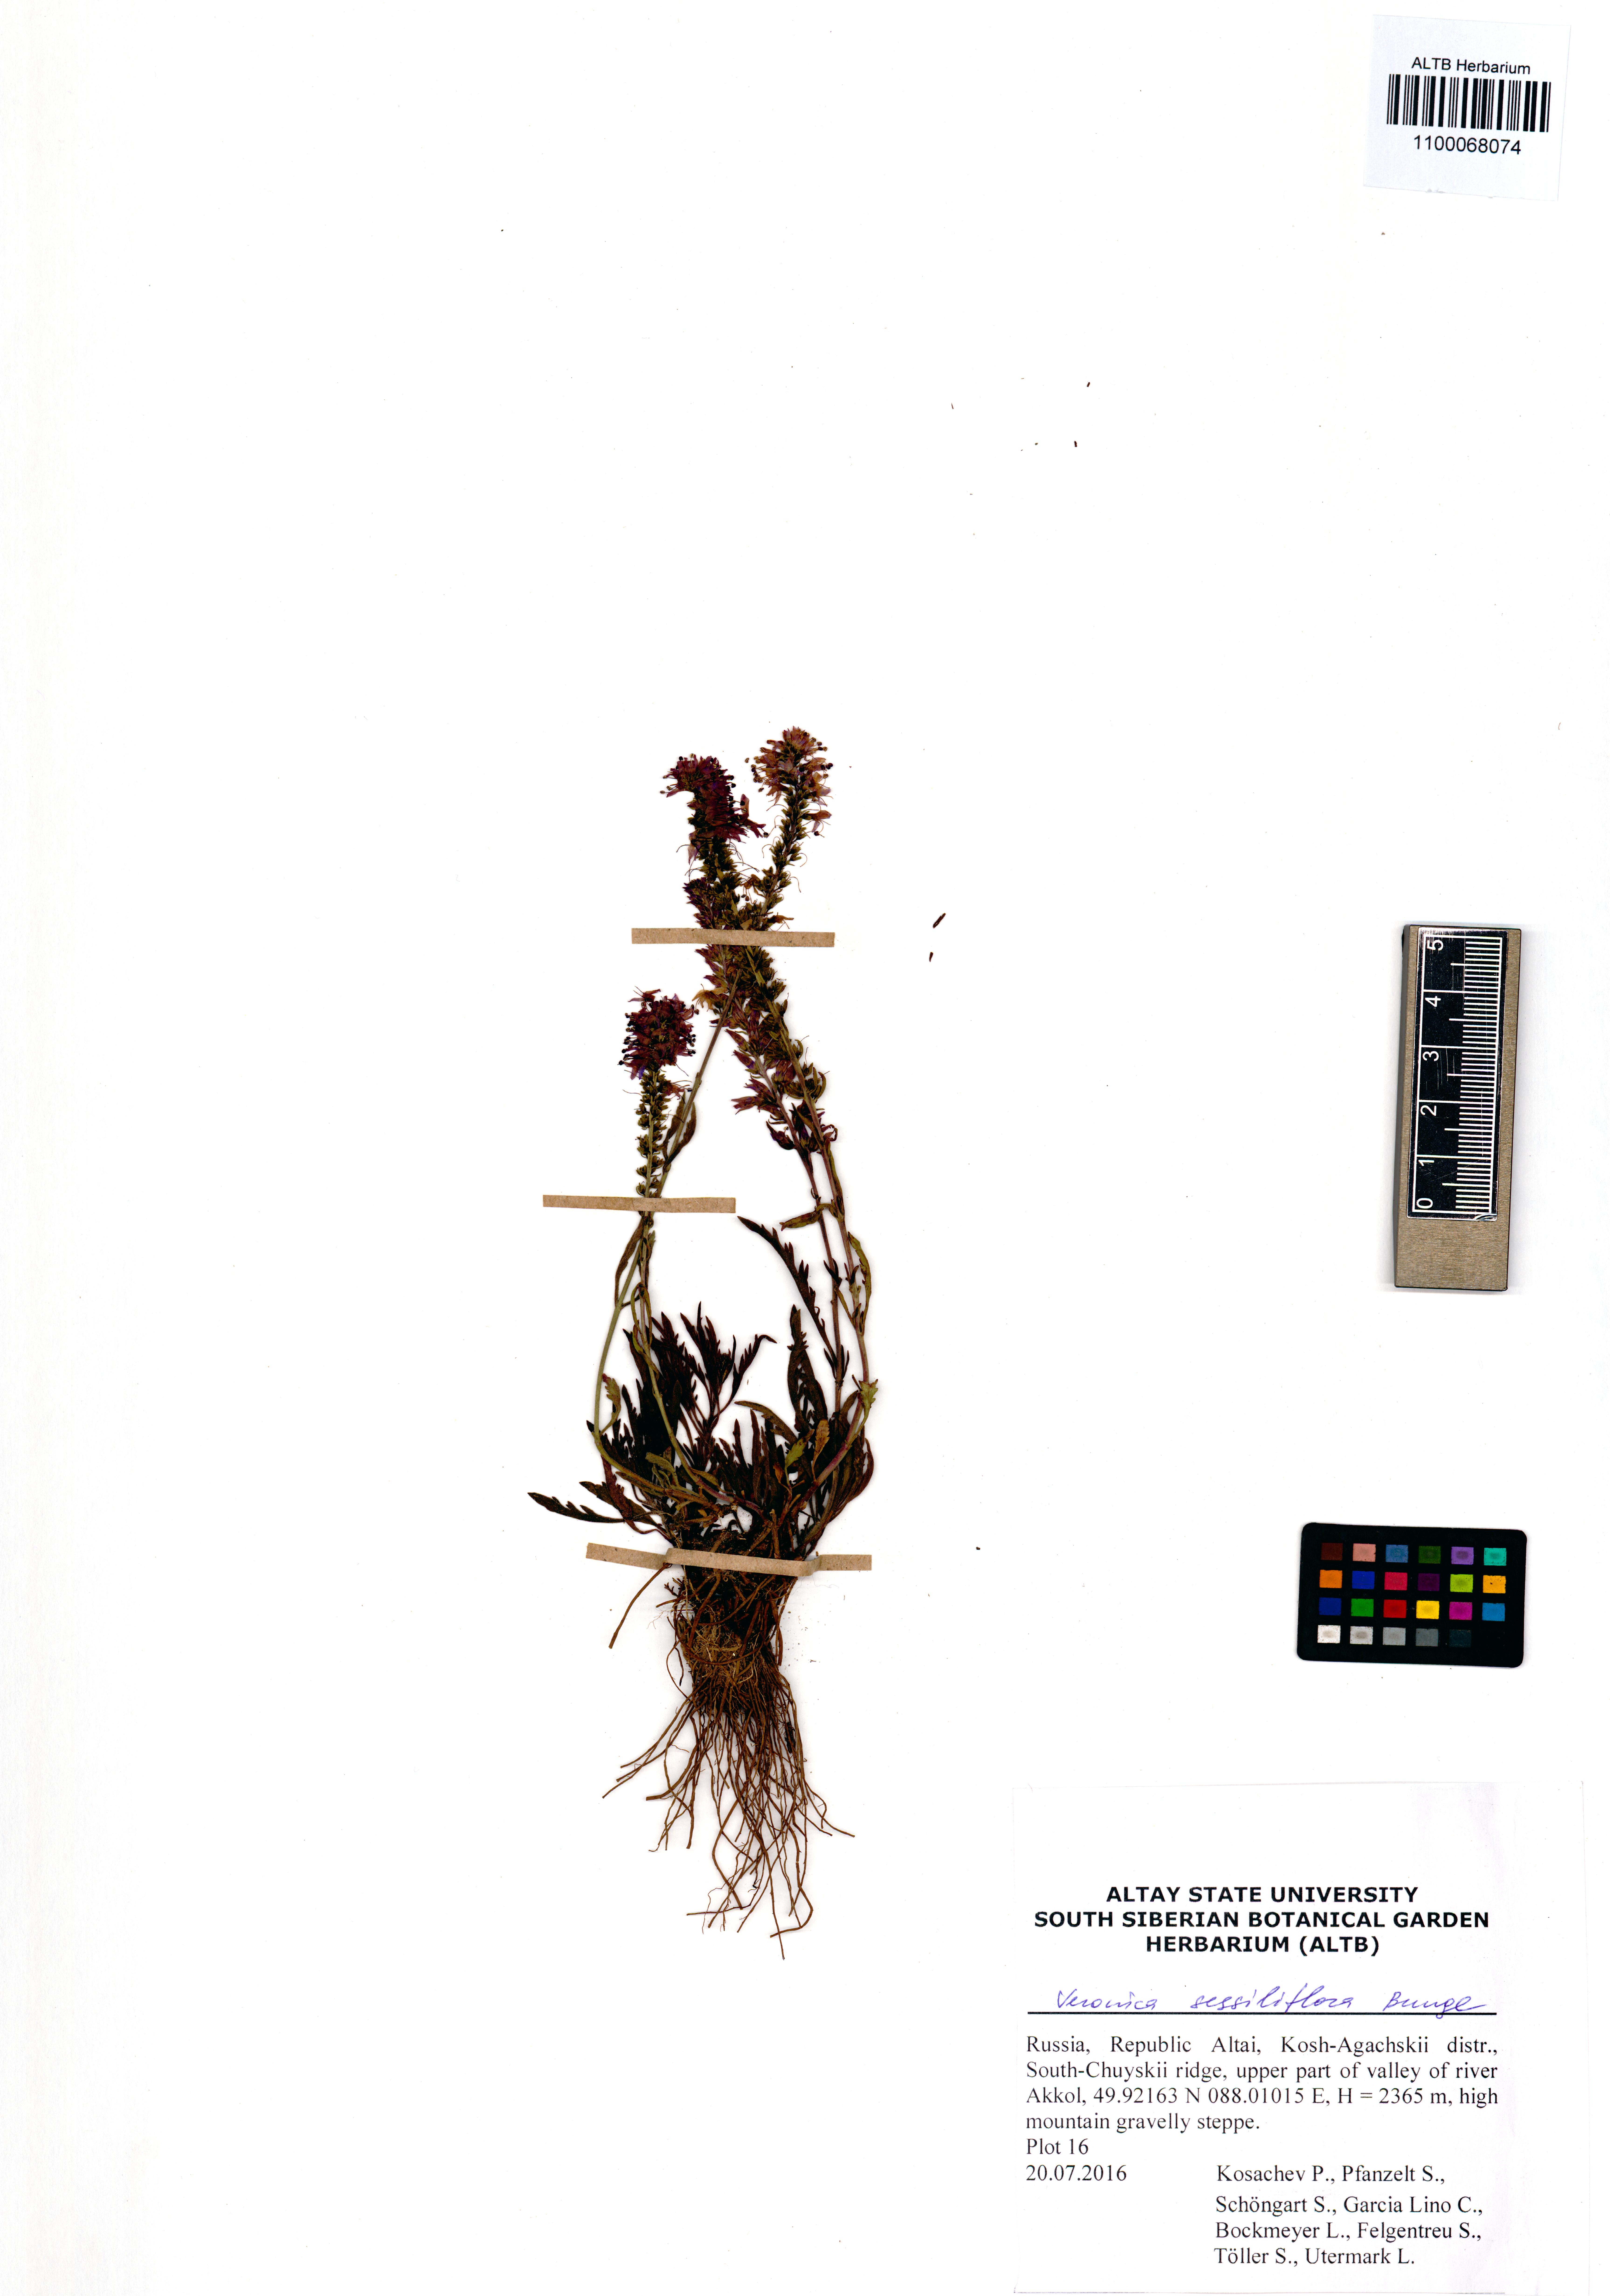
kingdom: Plantae
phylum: Tracheophyta
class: Magnoliopsida
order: Lamiales
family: Plantaginaceae
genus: Veronica
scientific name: Veronica sessiliflora
